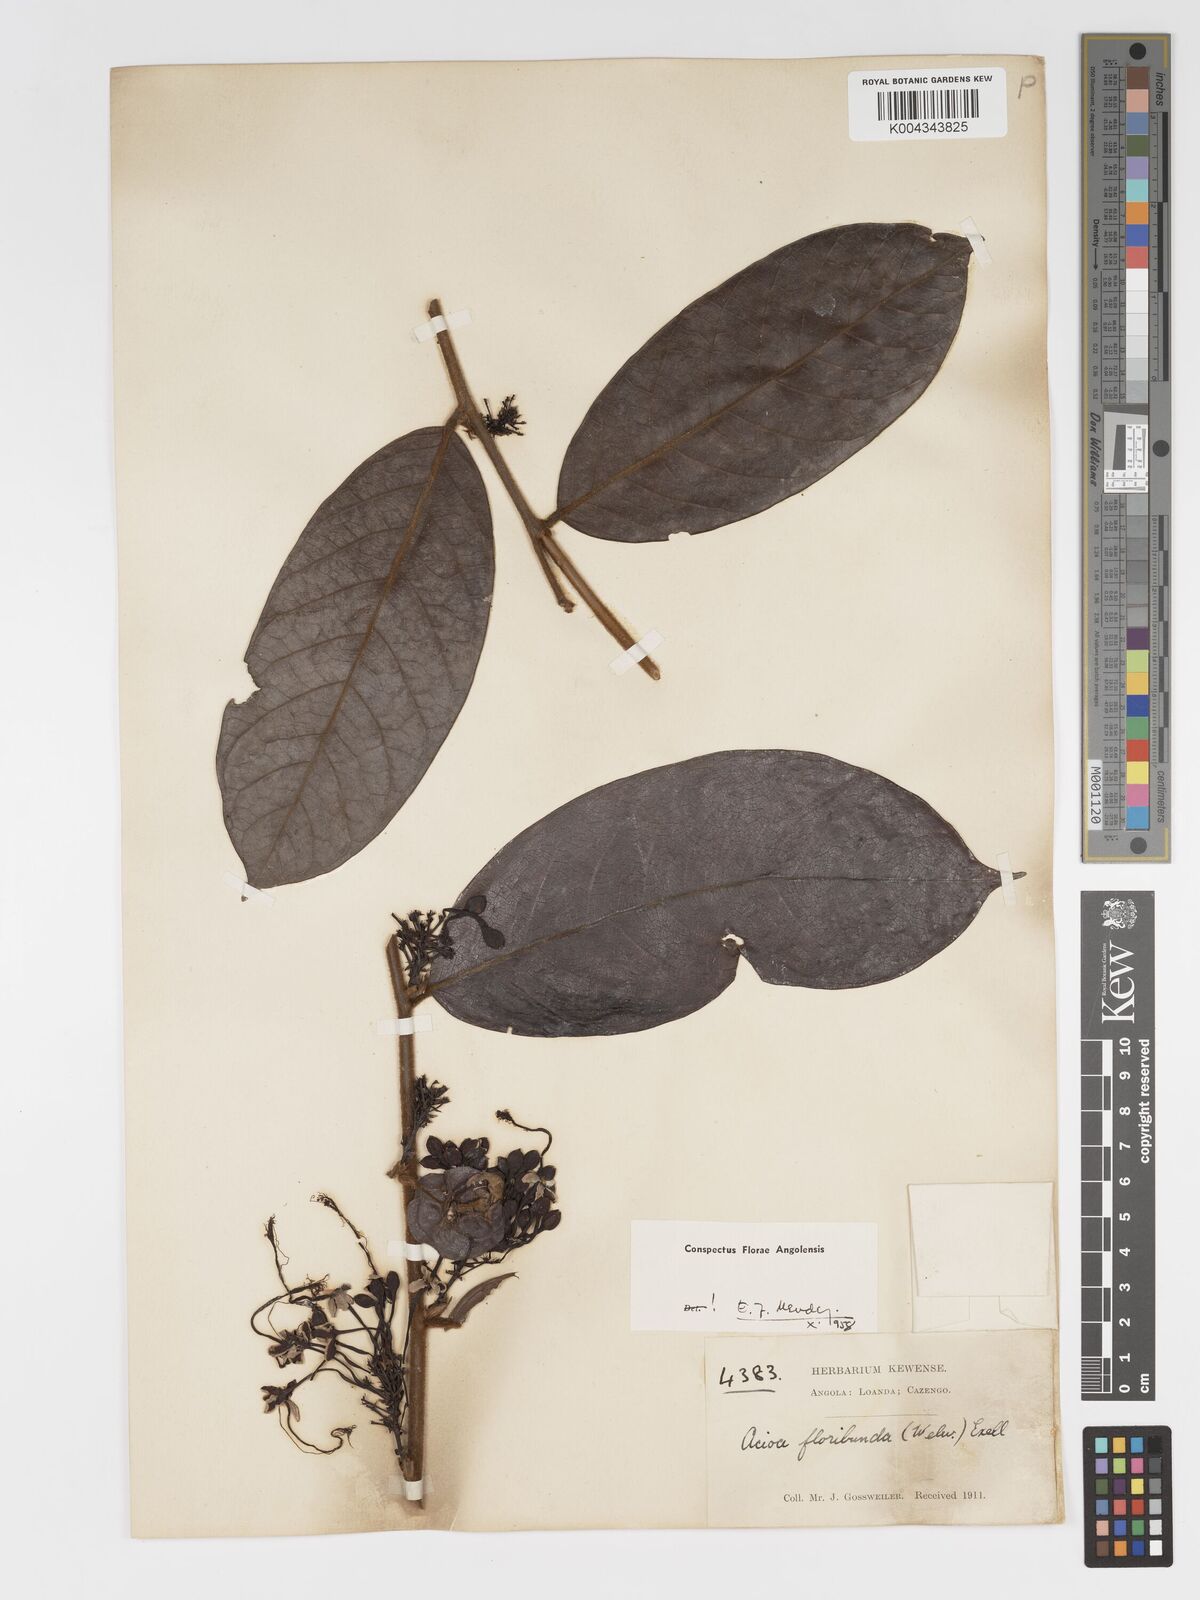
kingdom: Plantae
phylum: Tracheophyta
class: Magnoliopsida
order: Malpighiales
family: Chrysobalanaceae
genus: Dactyladenia
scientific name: Dactyladenia floribunda
